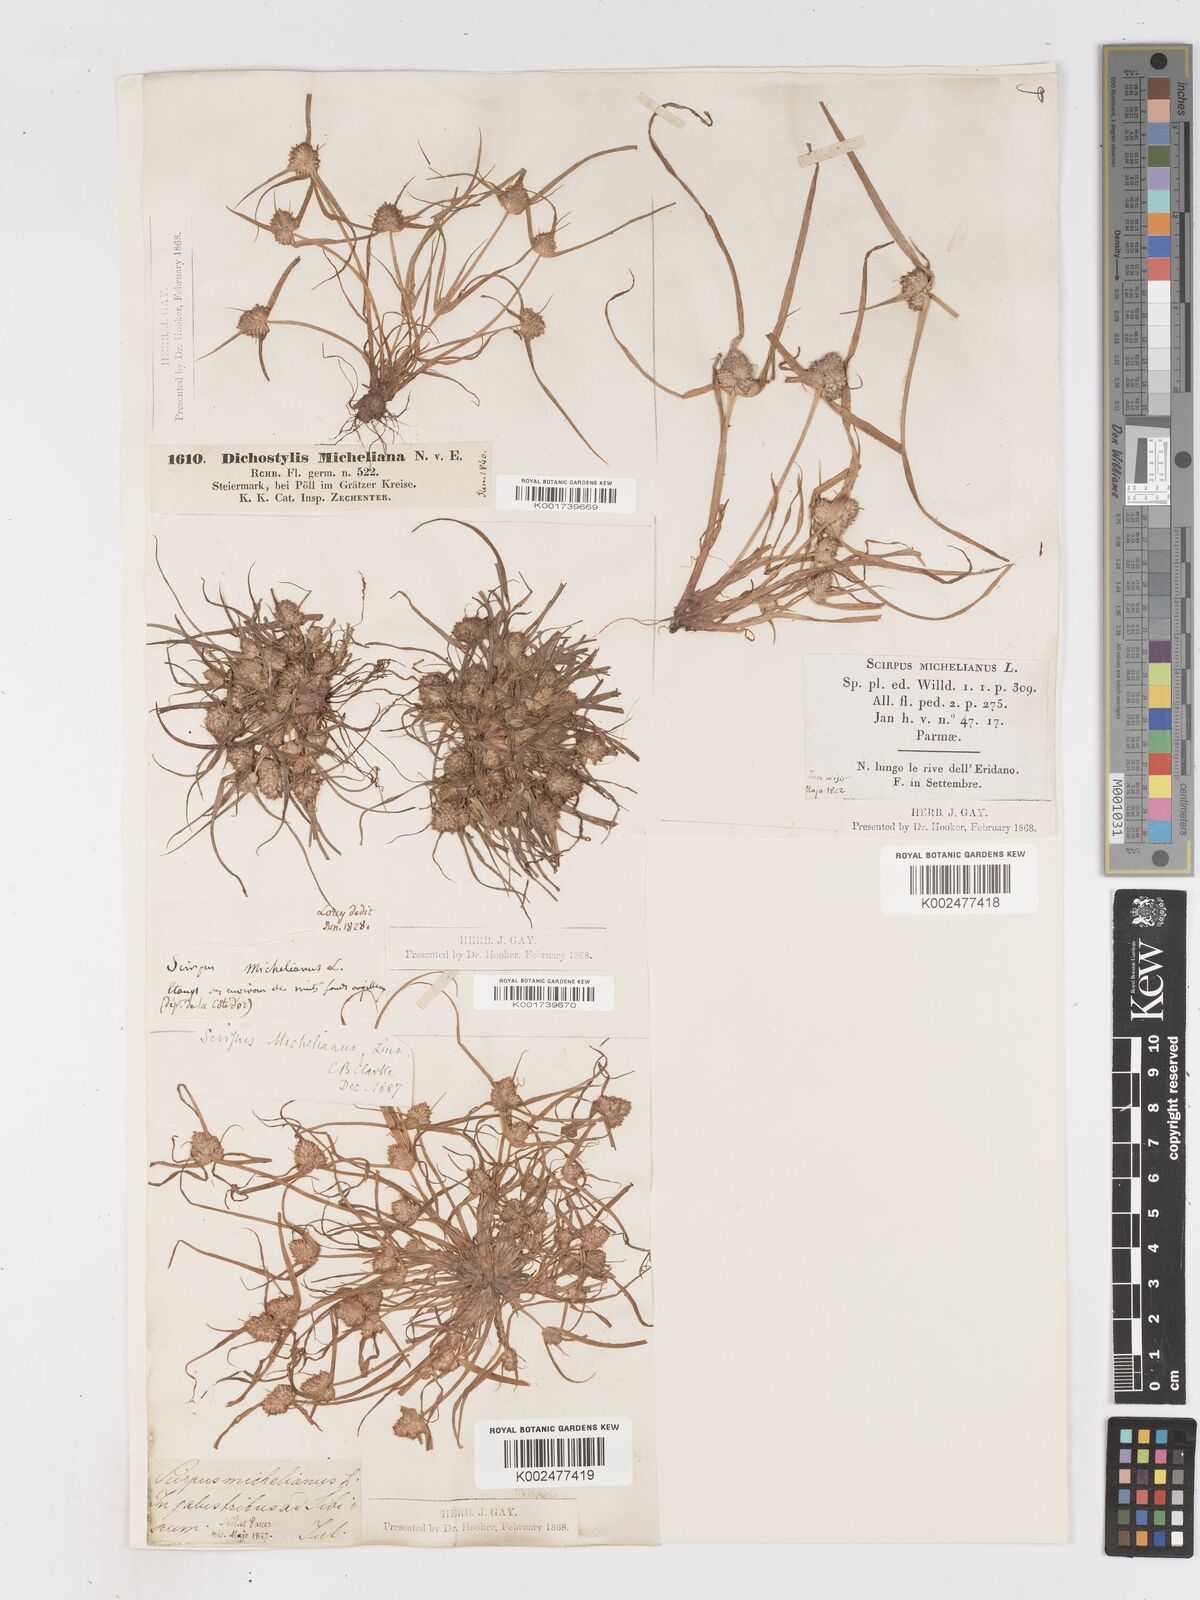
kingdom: Plantae
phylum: Tracheophyta
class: Liliopsida
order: Poales
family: Cyperaceae
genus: Cyperus
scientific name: Cyperus michelianus
